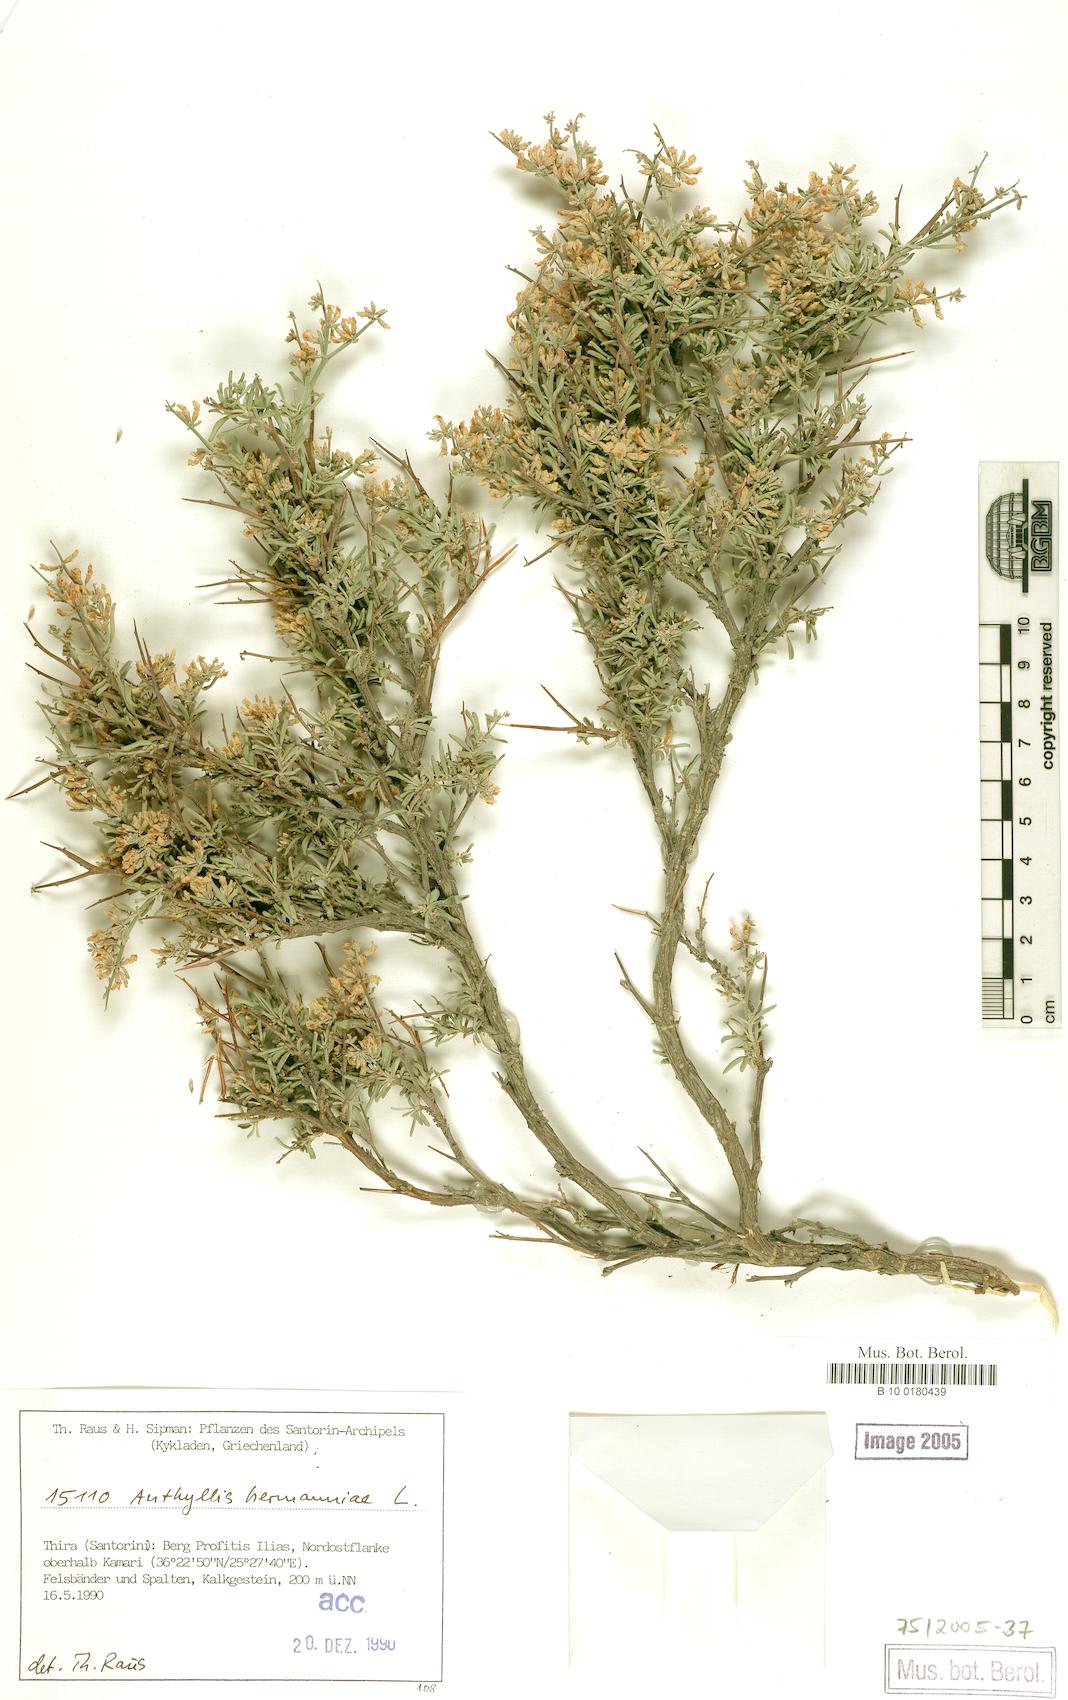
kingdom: Plantae
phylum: Tracheophyta
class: Magnoliopsida
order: Fabales
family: Fabaceae
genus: Anthyllis
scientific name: Anthyllis hermanniae
